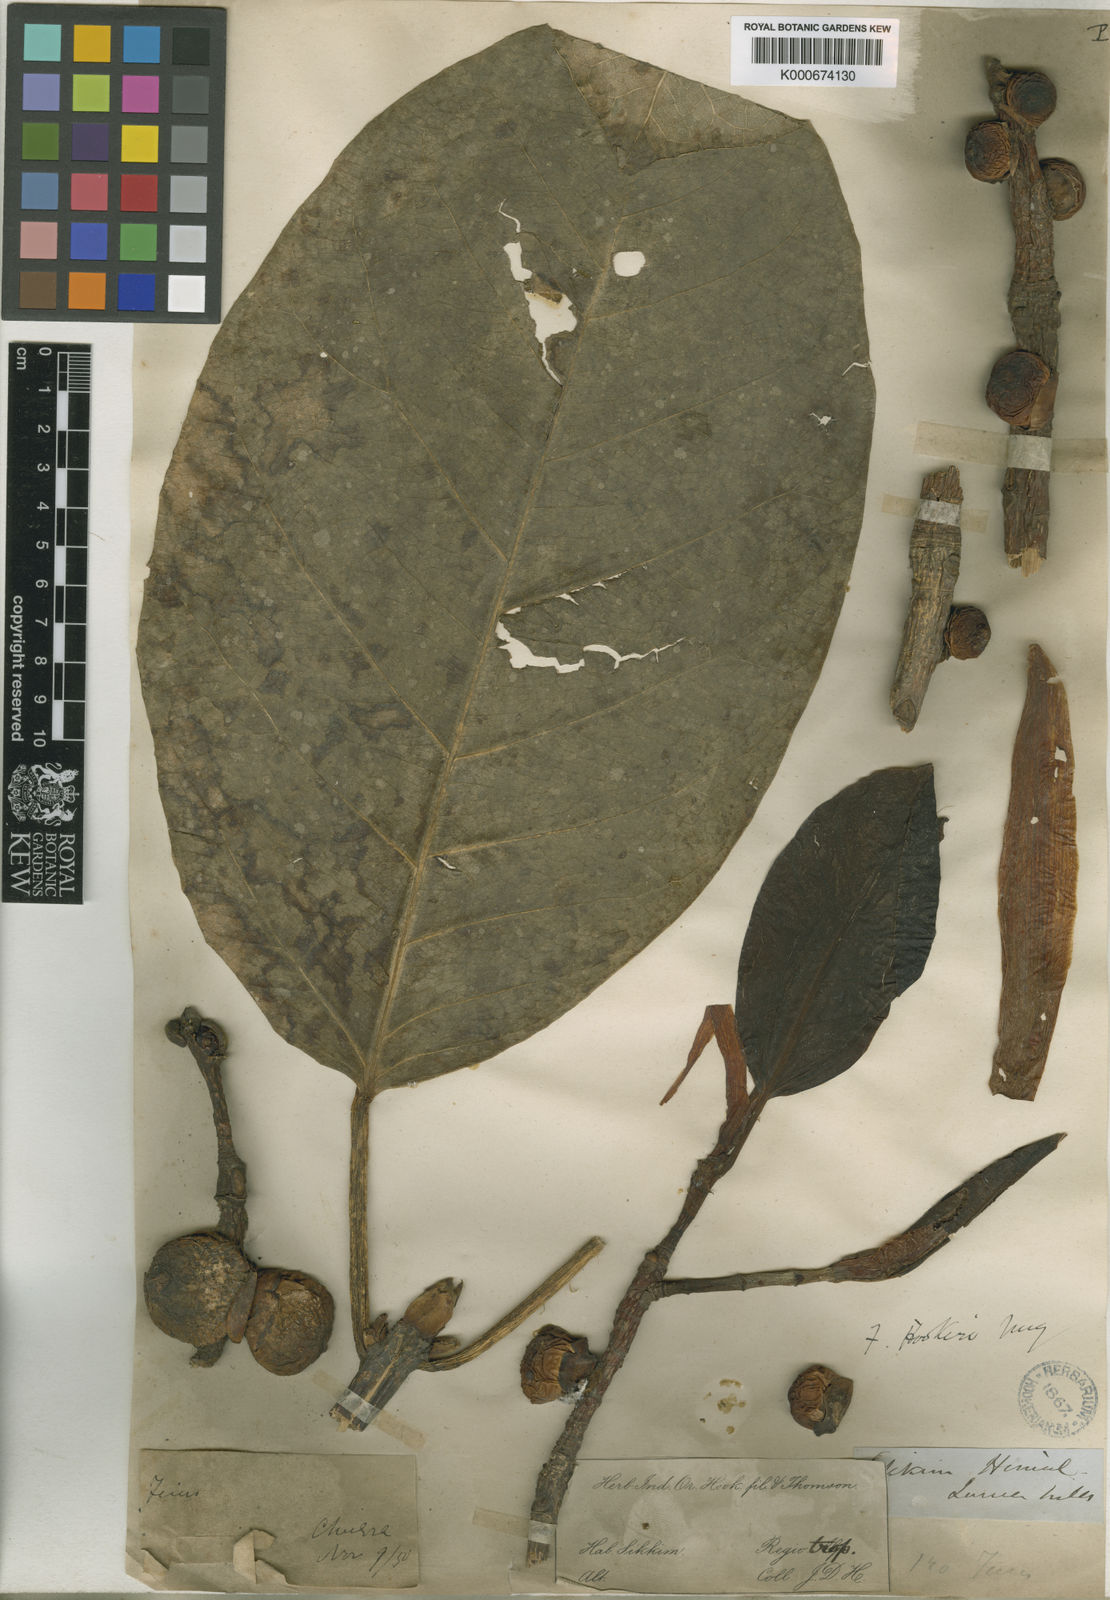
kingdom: Plantae
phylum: Tracheophyta
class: Magnoliopsida
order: Rosales
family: Moraceae
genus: Ficus
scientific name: Ficus hookeriana
